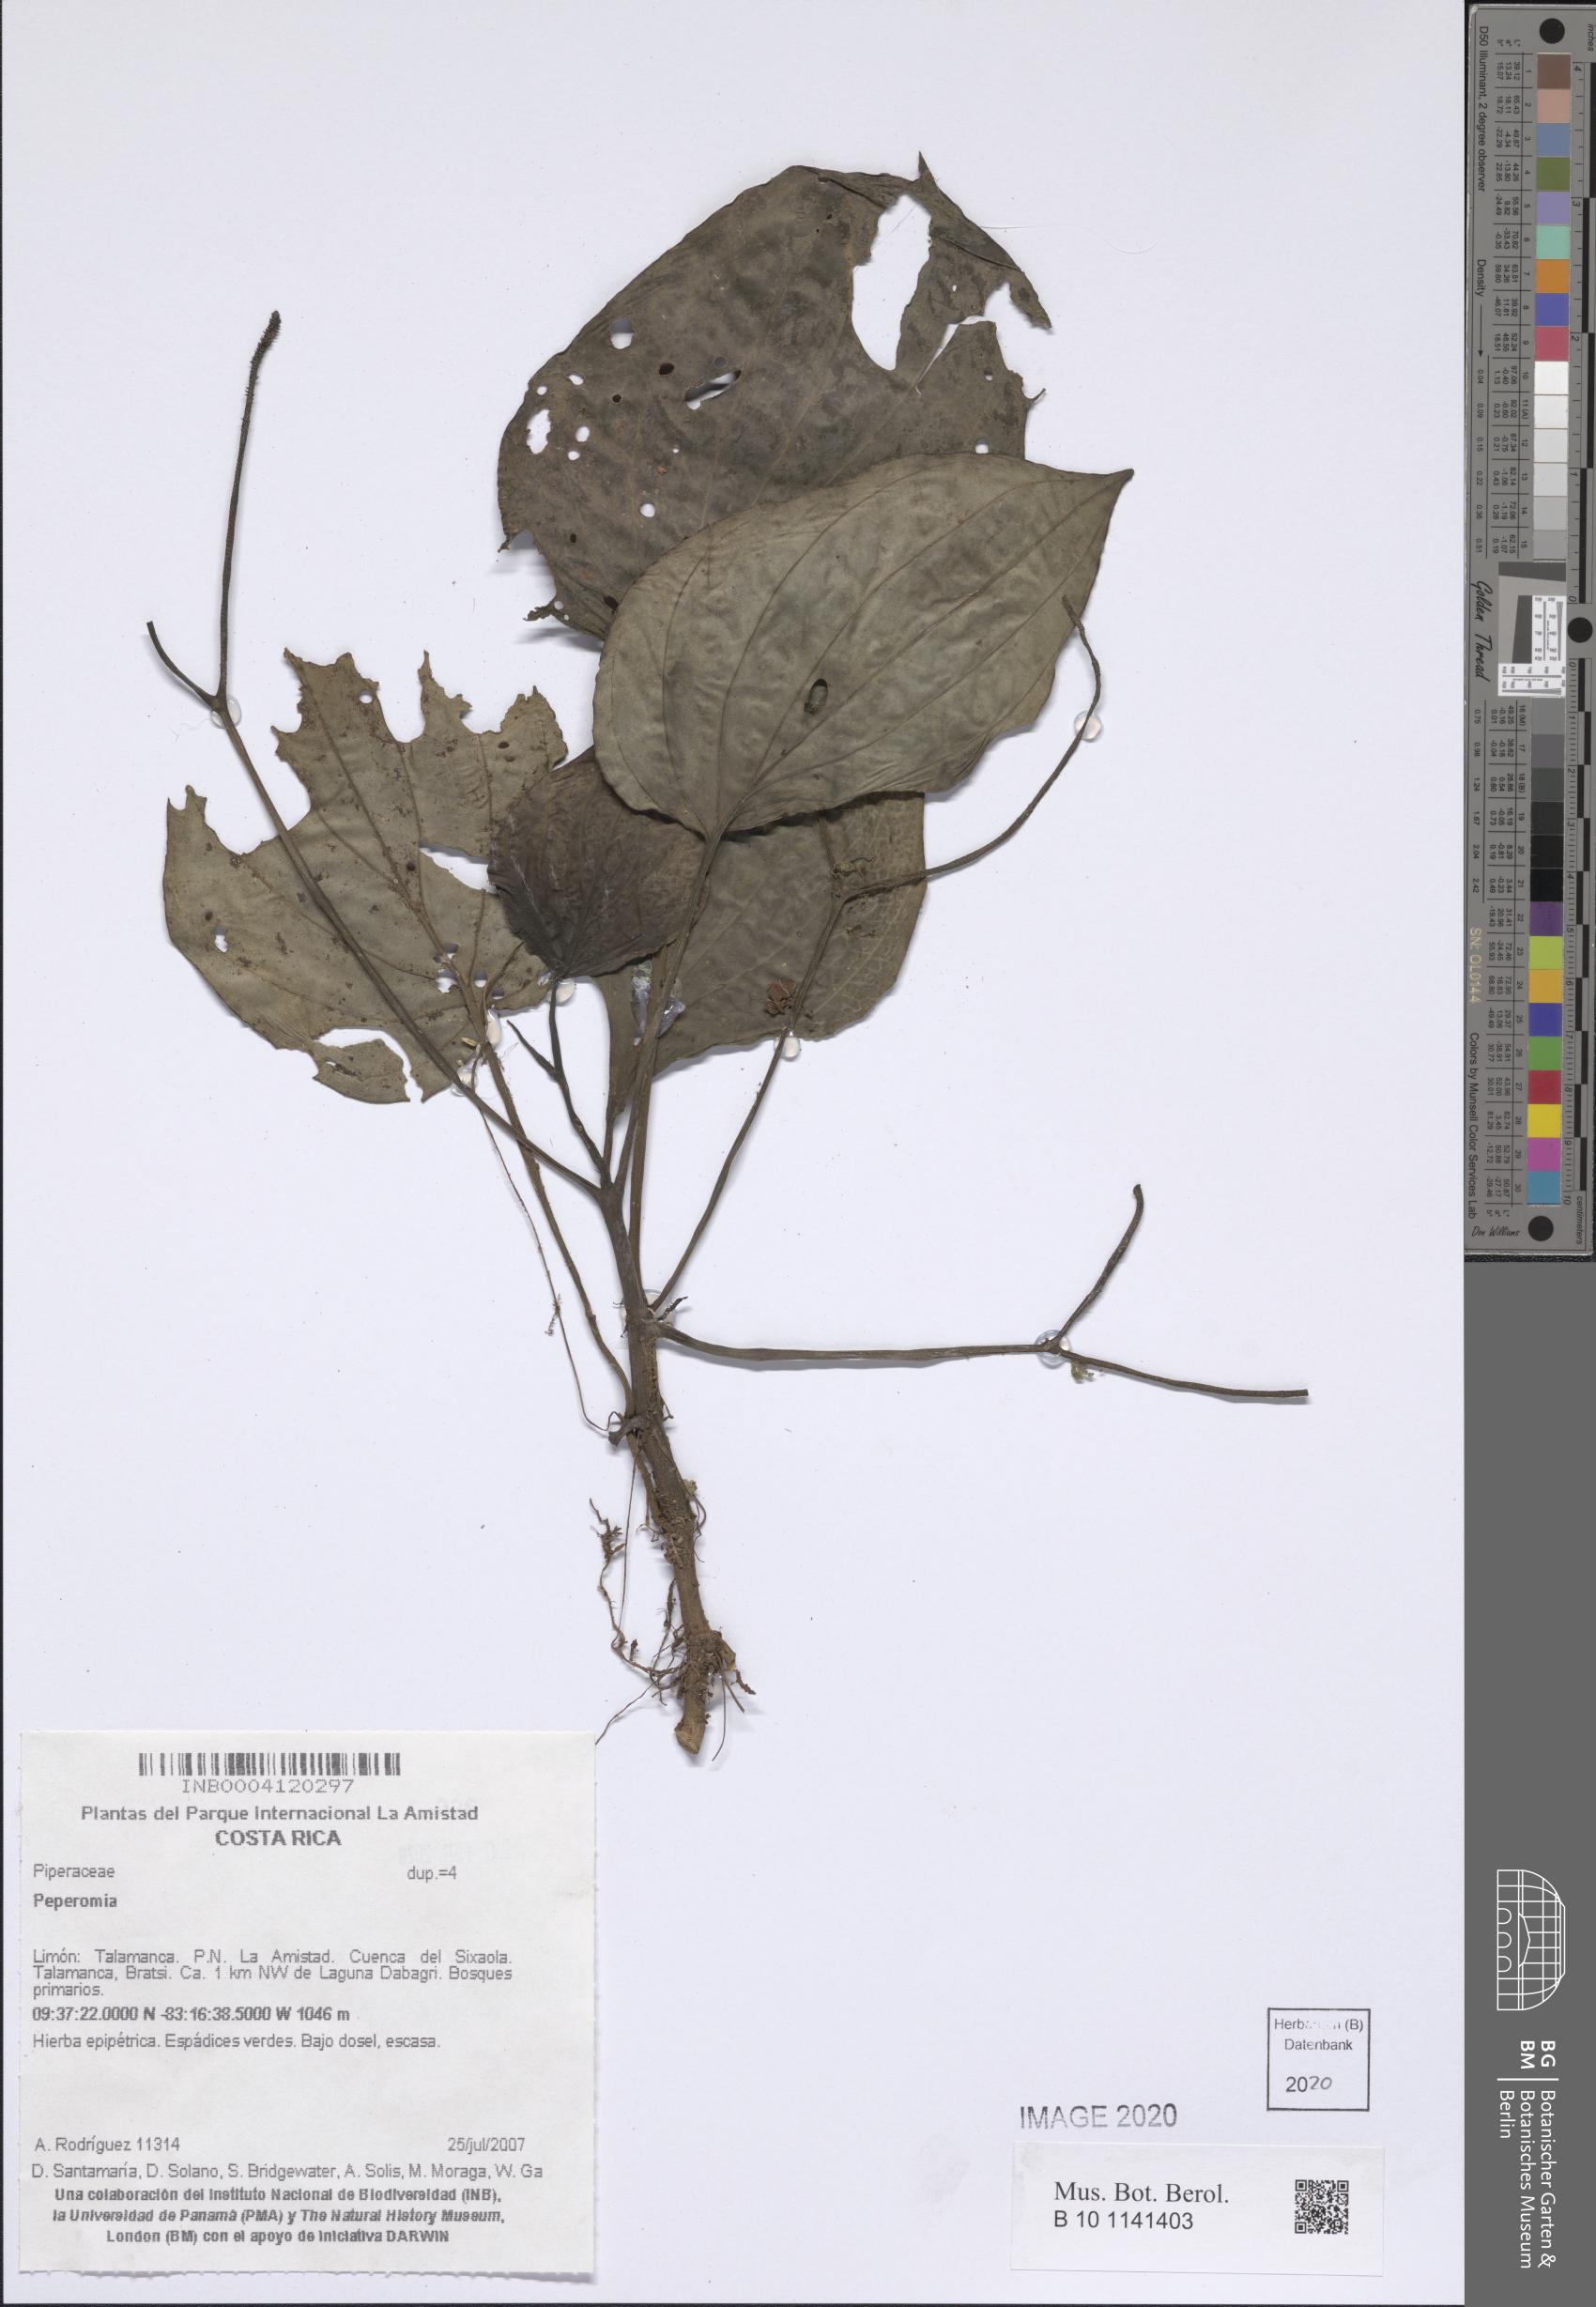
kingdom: Plantae
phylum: Tracheophyta
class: Magnoliopsida
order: Piperales
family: Piperaceae
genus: Peperomia
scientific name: Peperomia
